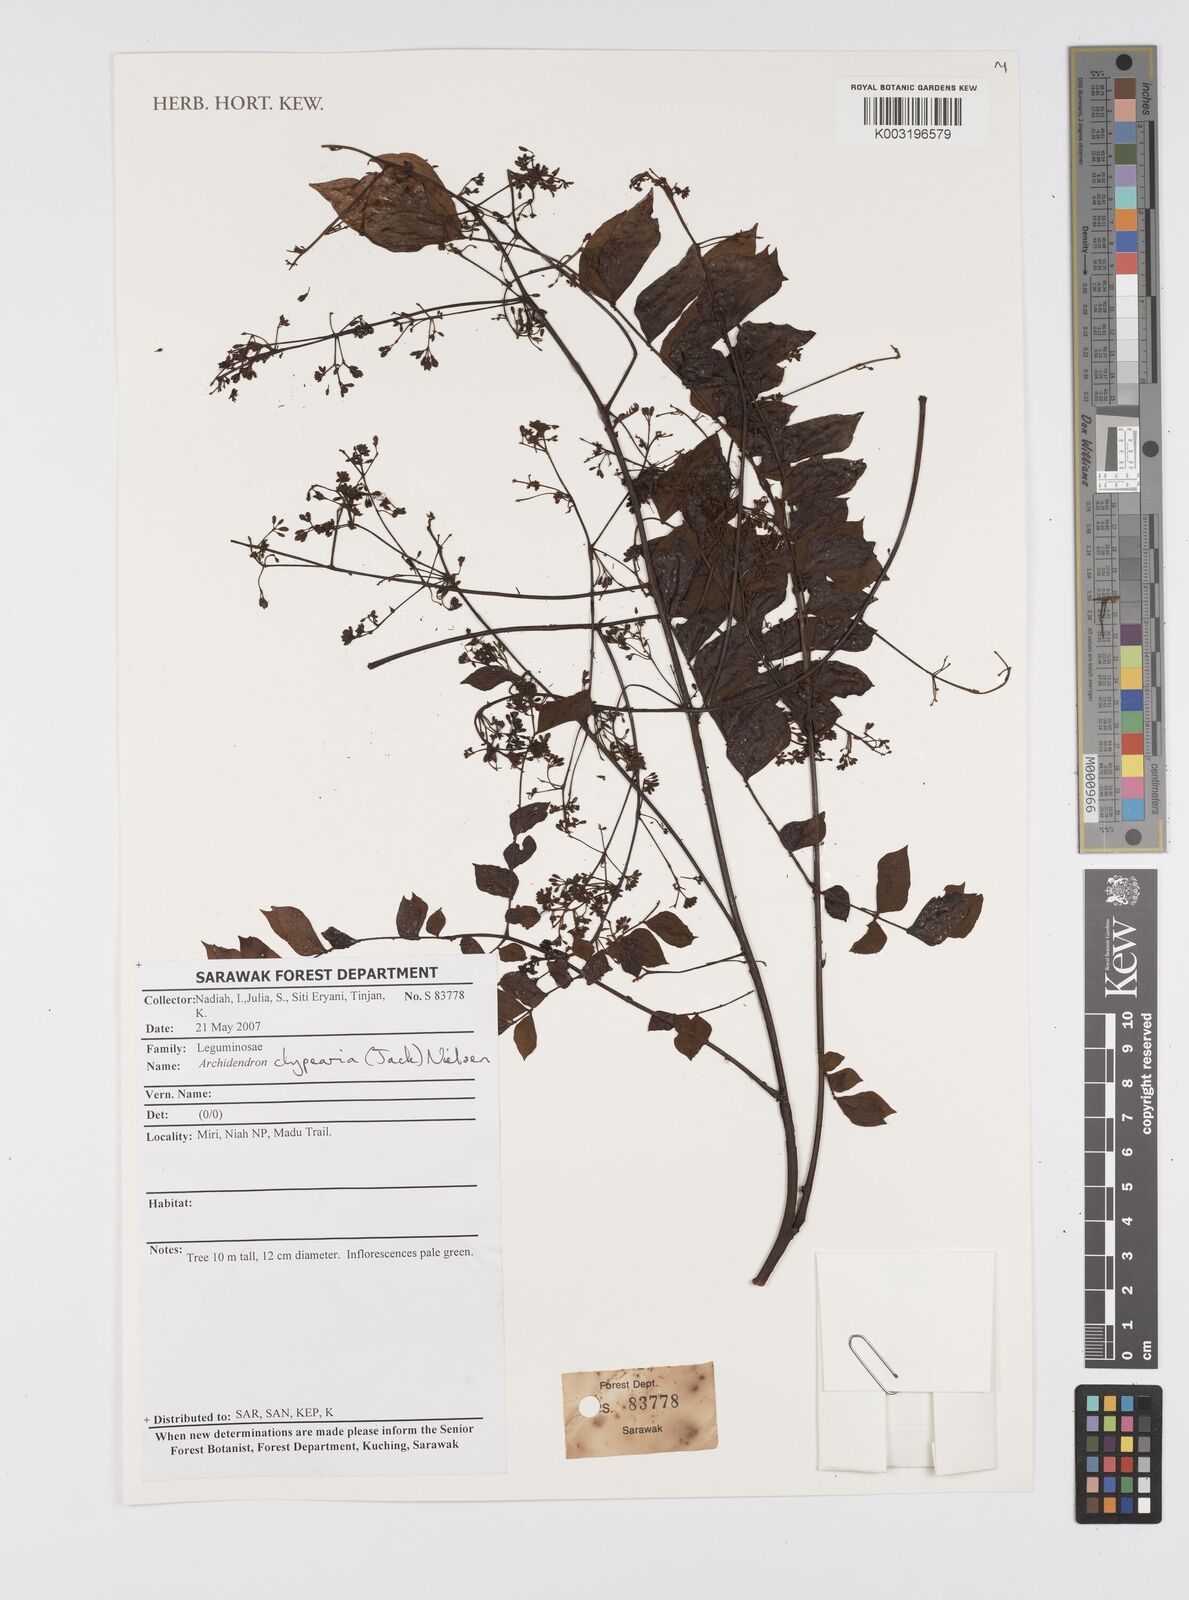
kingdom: Plantae
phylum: Tracheophyta
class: Magnoliopsida
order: Fabales
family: Fabaceae
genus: Archidendron
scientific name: Archidendron clypearia
